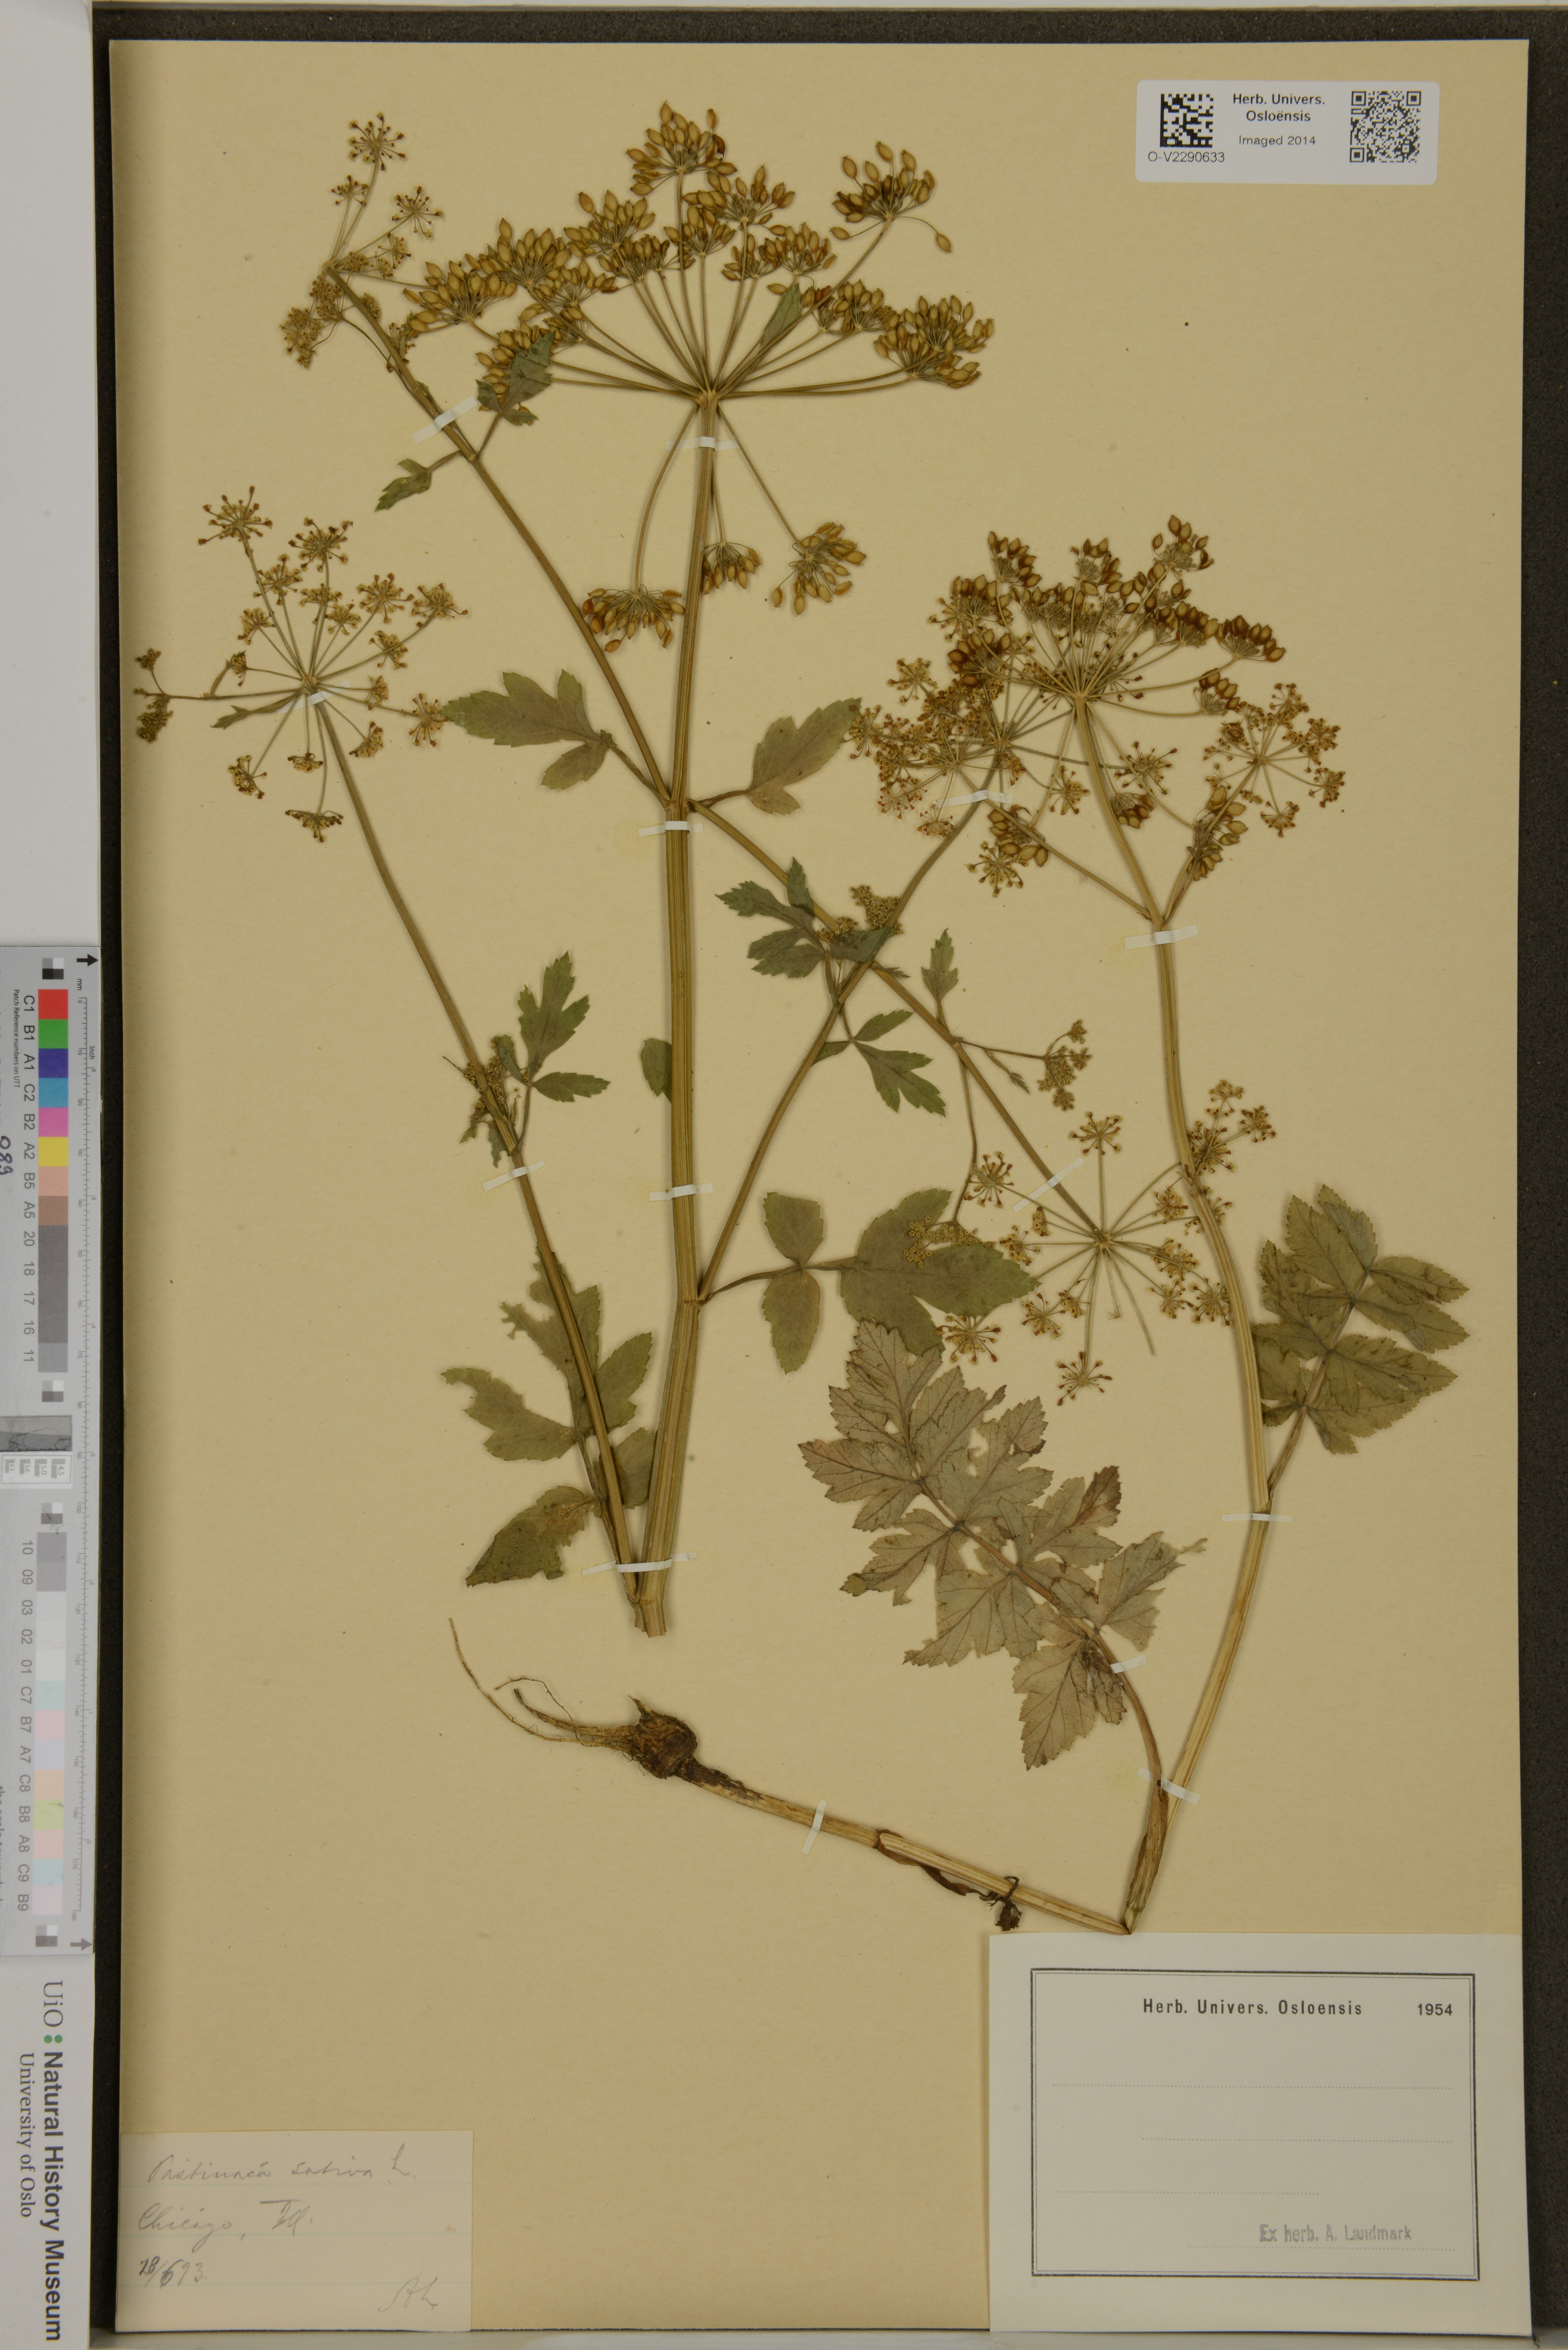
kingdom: Plantae
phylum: Tracheophyta
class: Magnoliopsida
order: Apiales
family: Apiaceae
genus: Pastinaca
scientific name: Pastinaca sativa
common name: Wild parsnip
